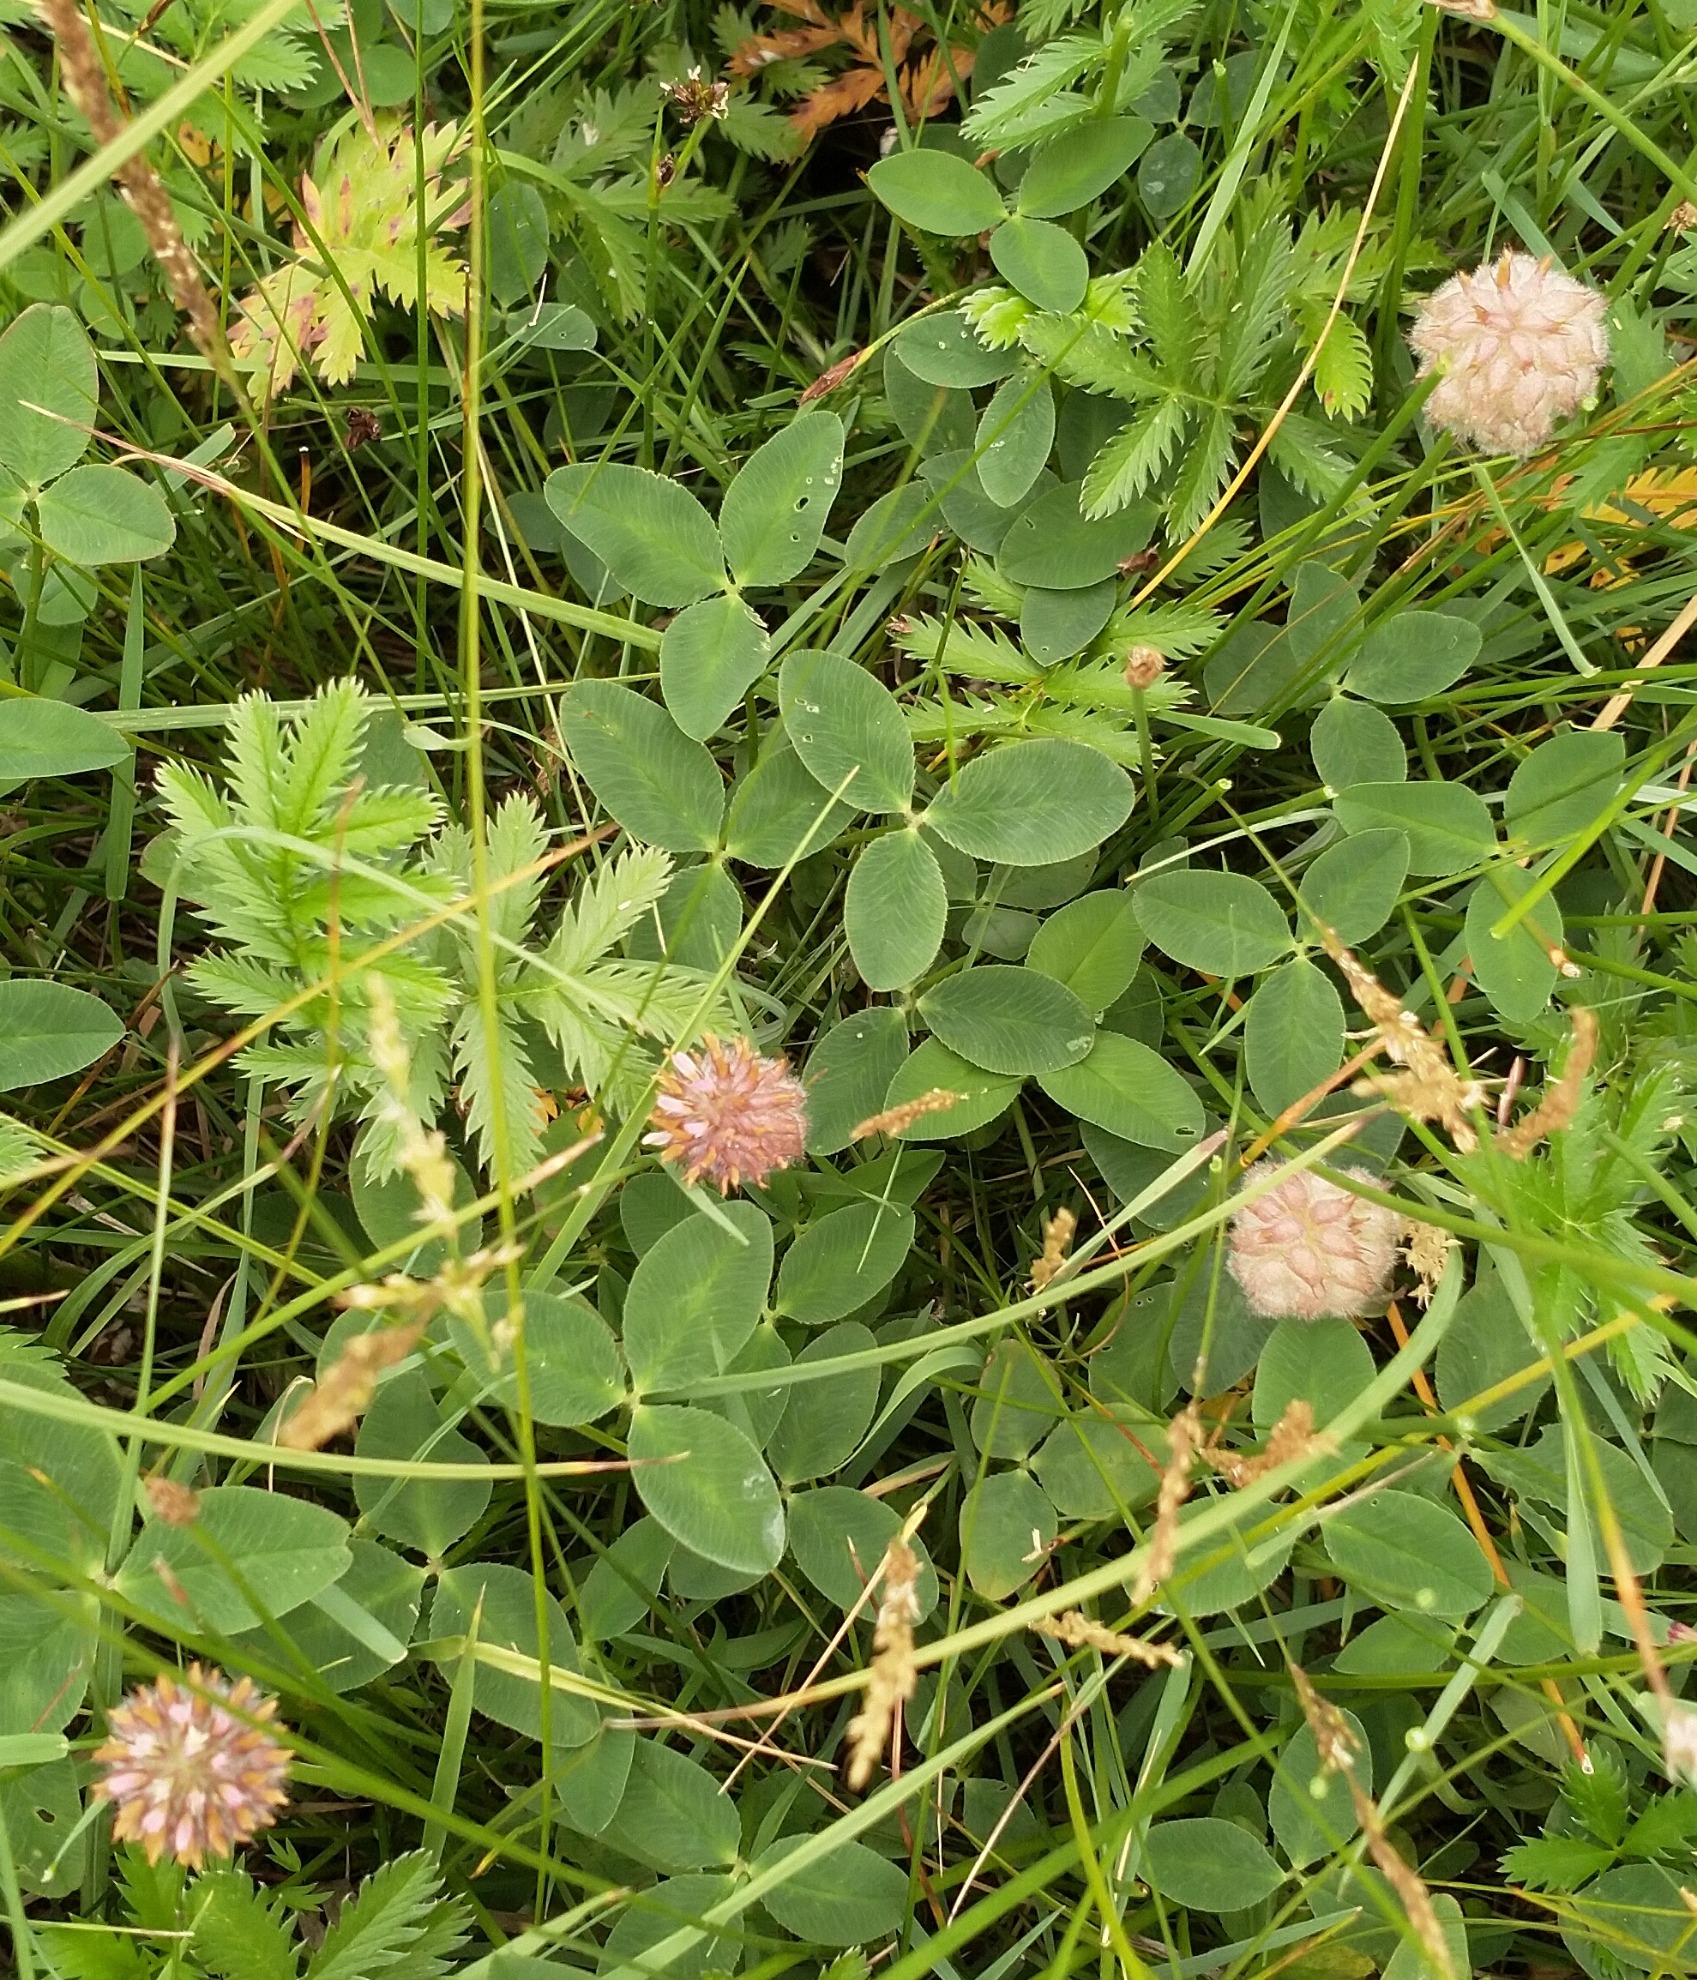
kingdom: Plantae
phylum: Tracheophyta
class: Magnoliopsida
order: Fabales
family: Fabaceae
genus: Trifolium
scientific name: Trifolium fragiferum
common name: Jordbær-kløver
